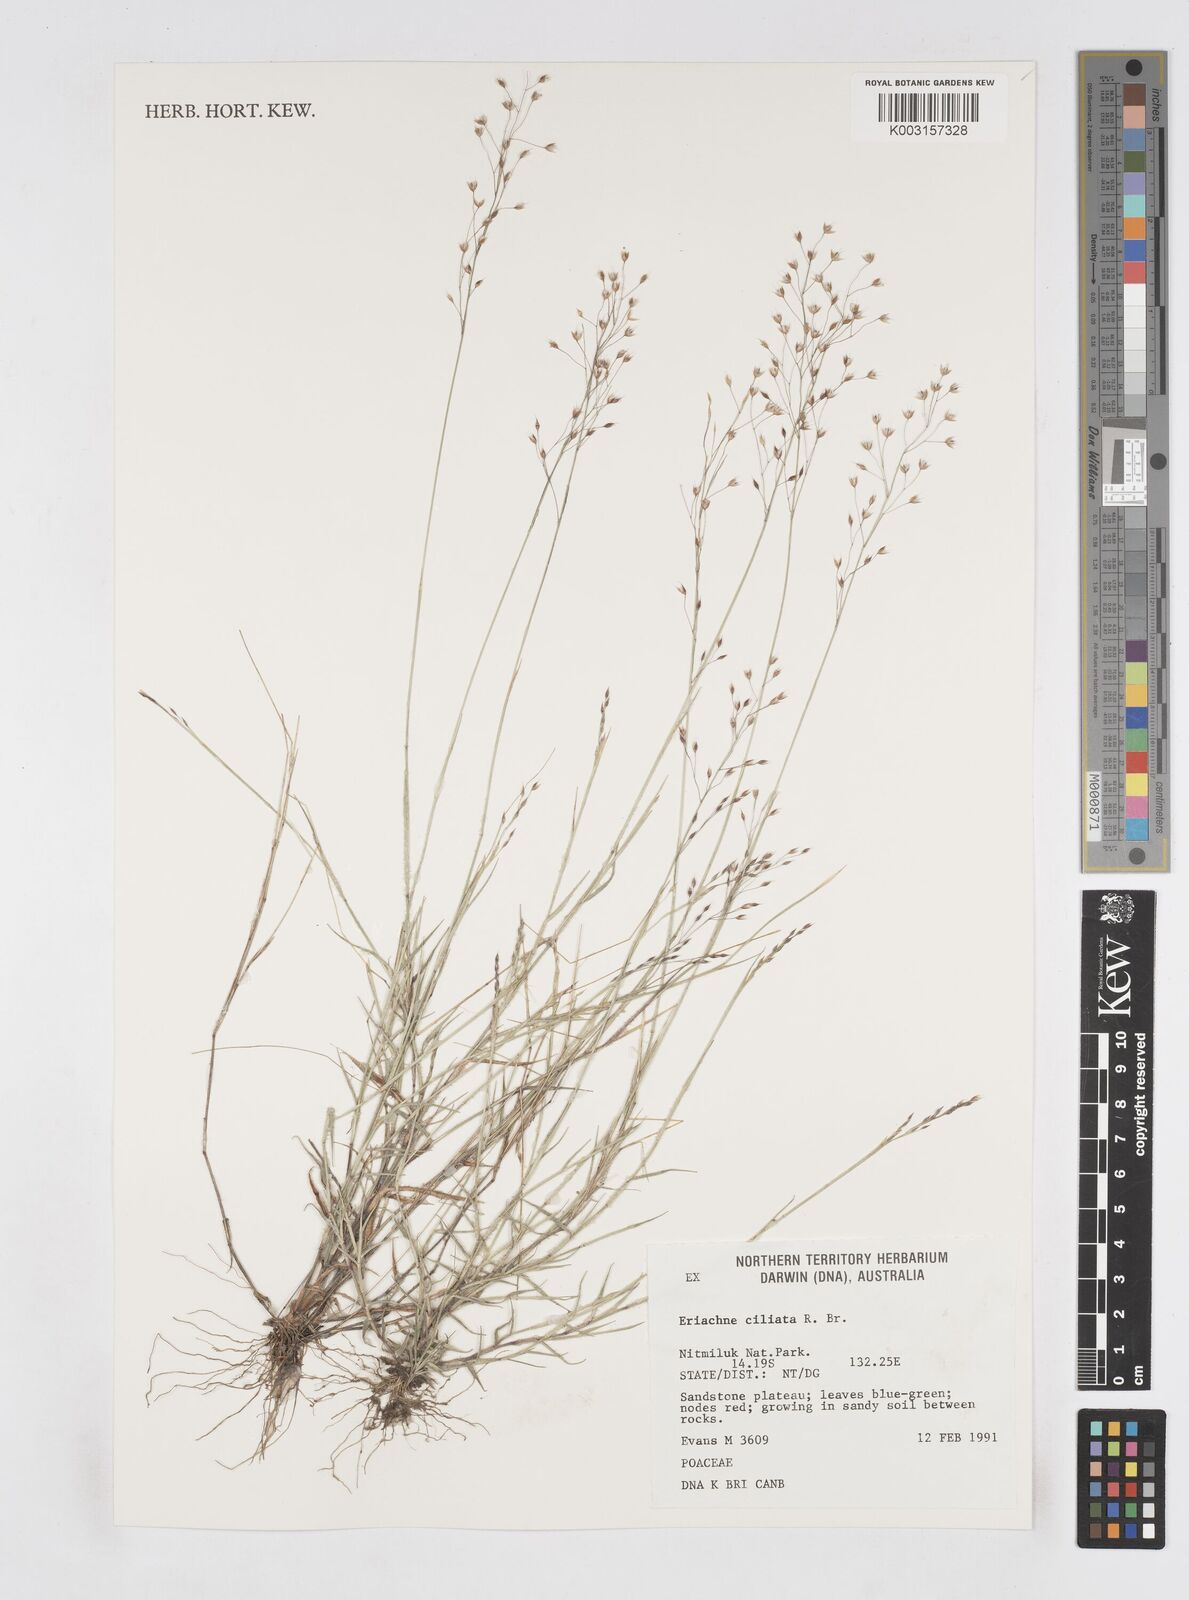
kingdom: Plantae
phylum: Tracheophyta
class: Liliopsida
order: Poales
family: Poaceae
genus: Eriachne
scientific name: Eriachne ciliata
